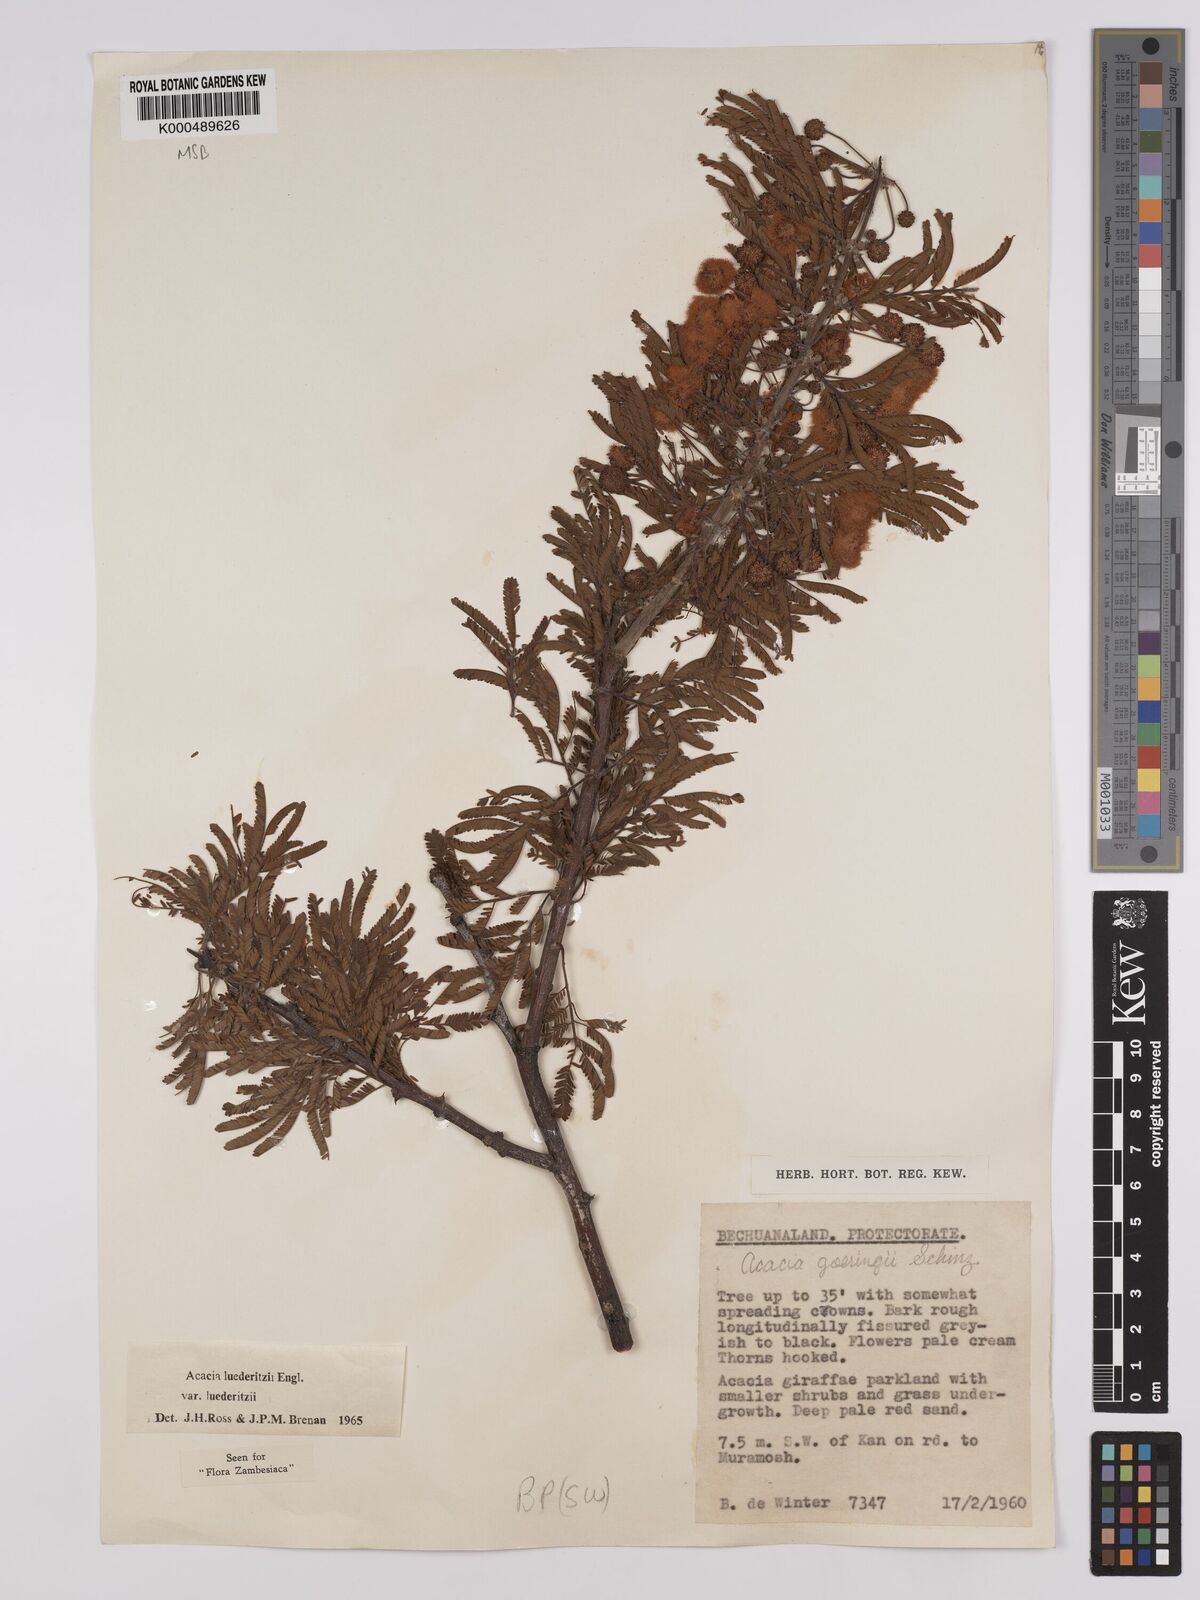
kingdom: Plantae
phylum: Tracheophyta
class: Magnoliopsida
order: Fabales
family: Fabaceae
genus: Vachellia
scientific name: Vachellia
